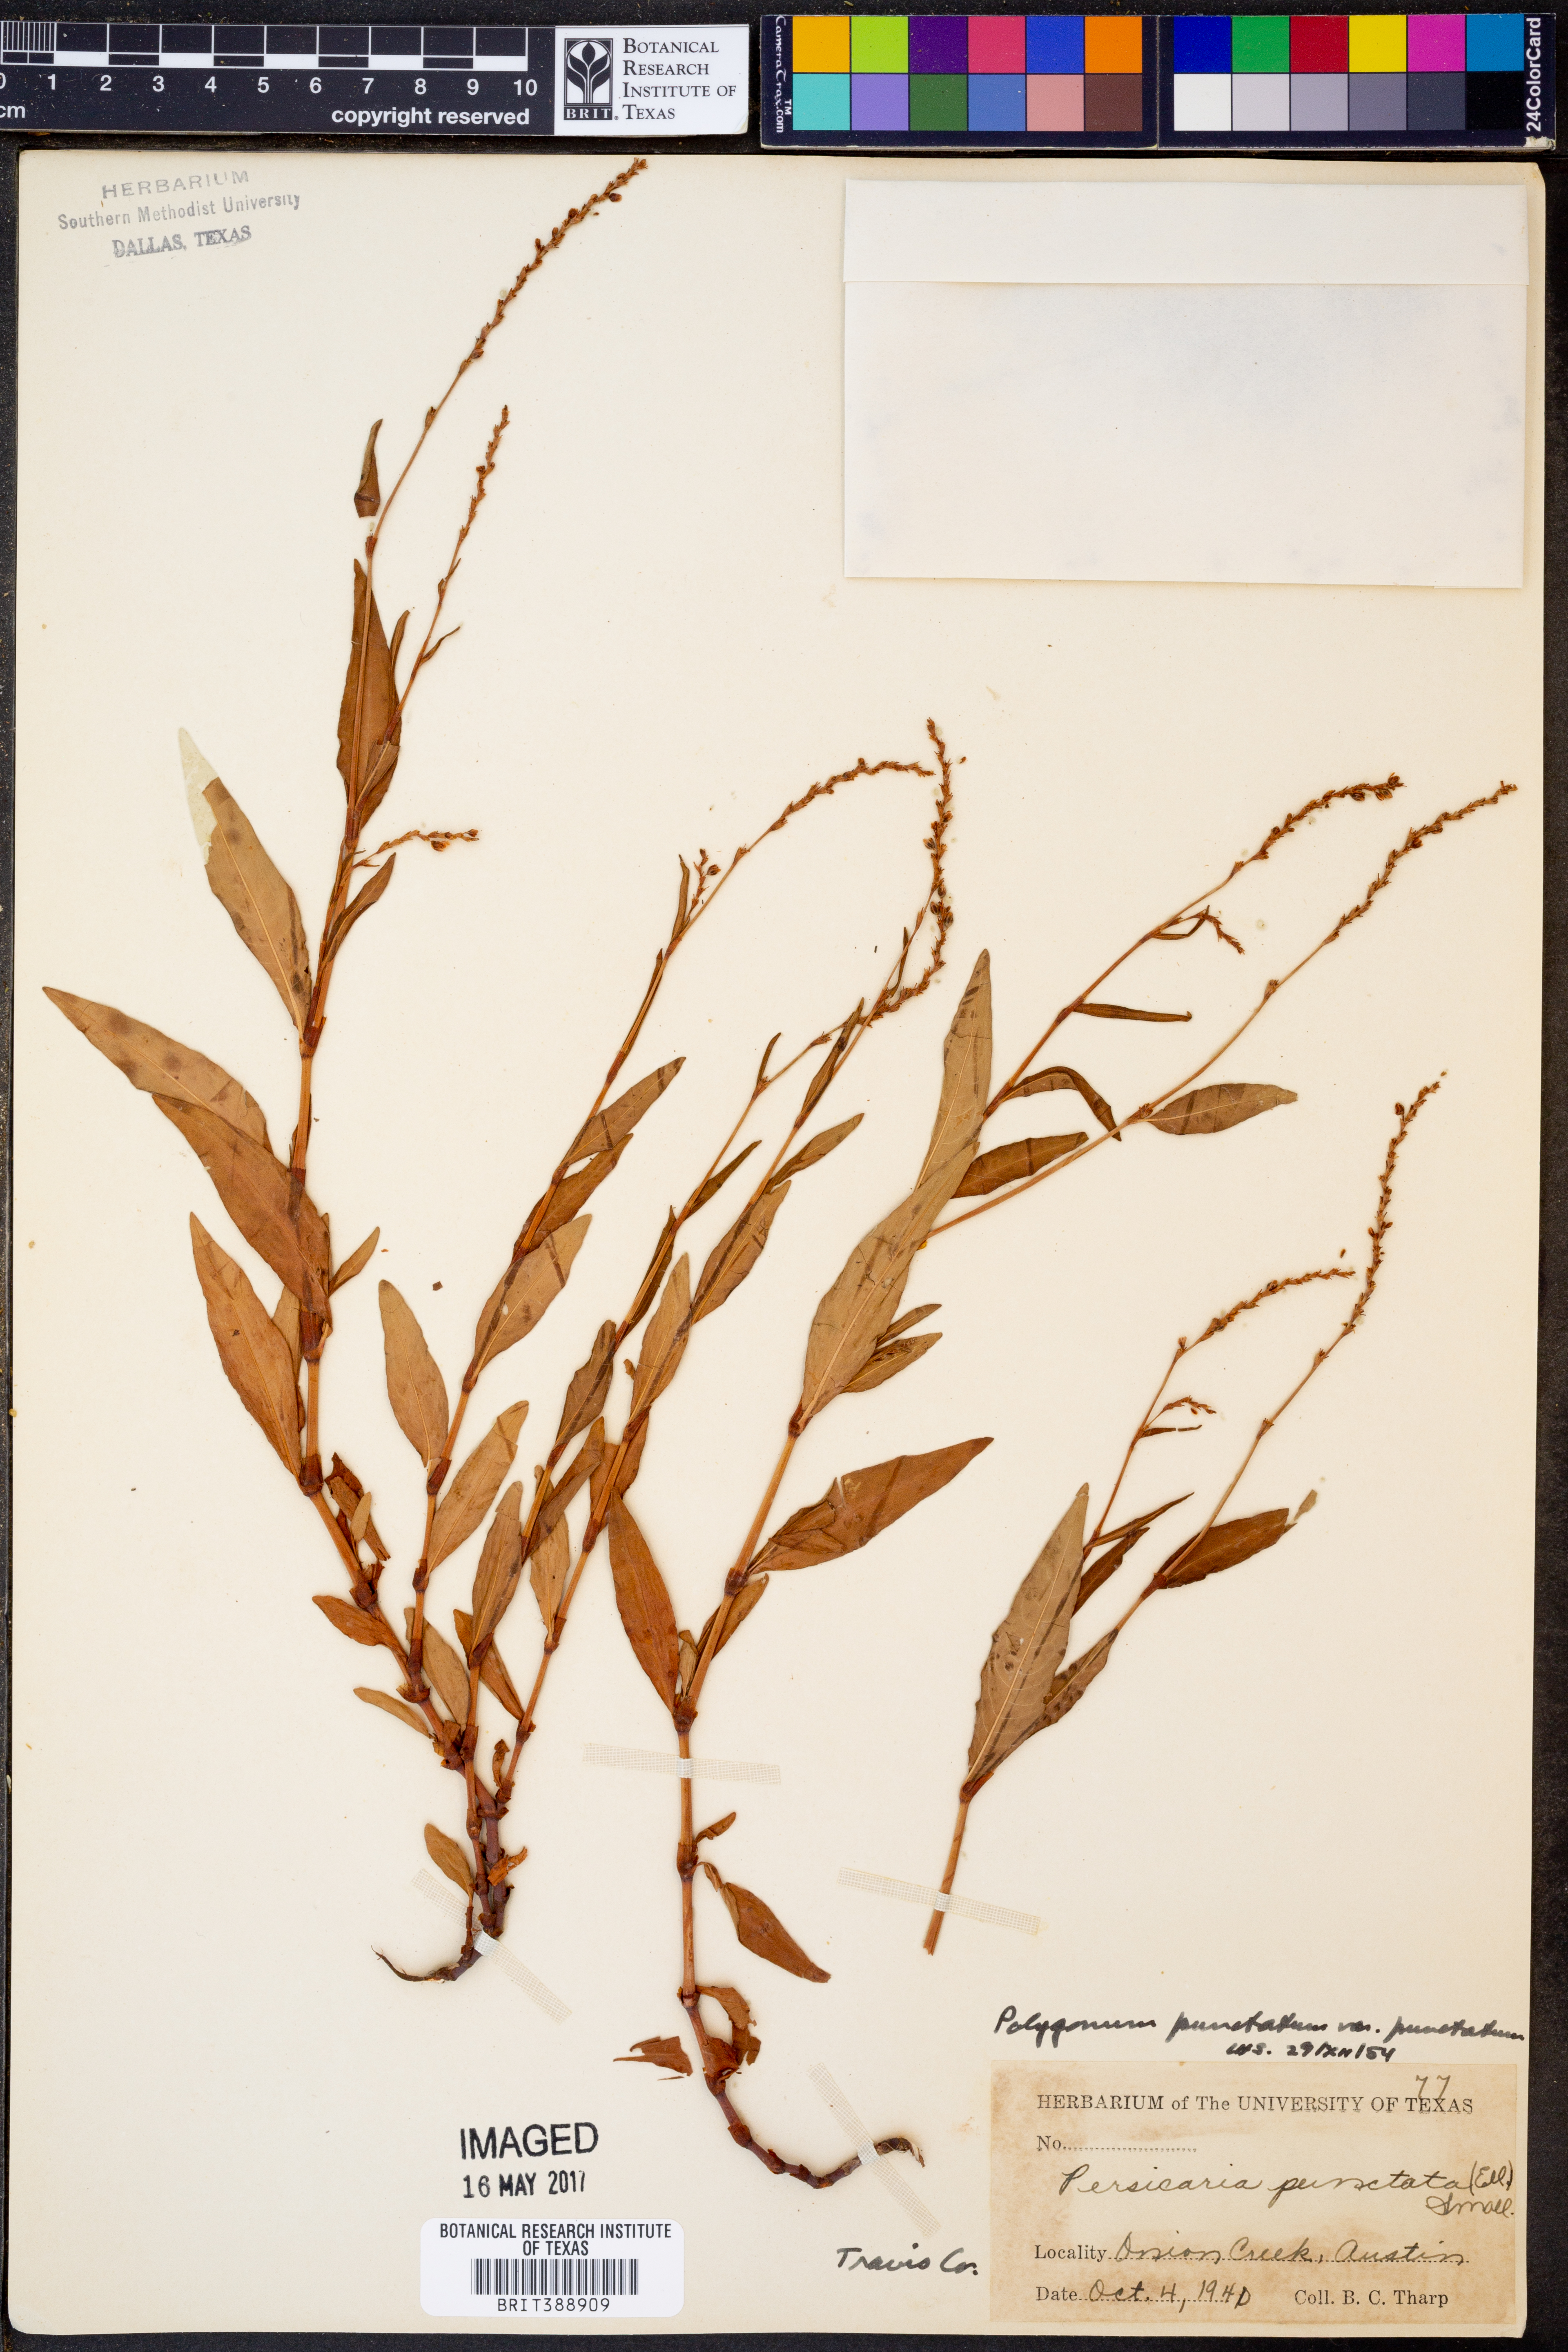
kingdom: Plantae
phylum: Tracheophyta
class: Magnoliopsida
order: Caryophyllales
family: Polygonaceae
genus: Persicaria
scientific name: Persicaria punctata
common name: Dotted smartweed
